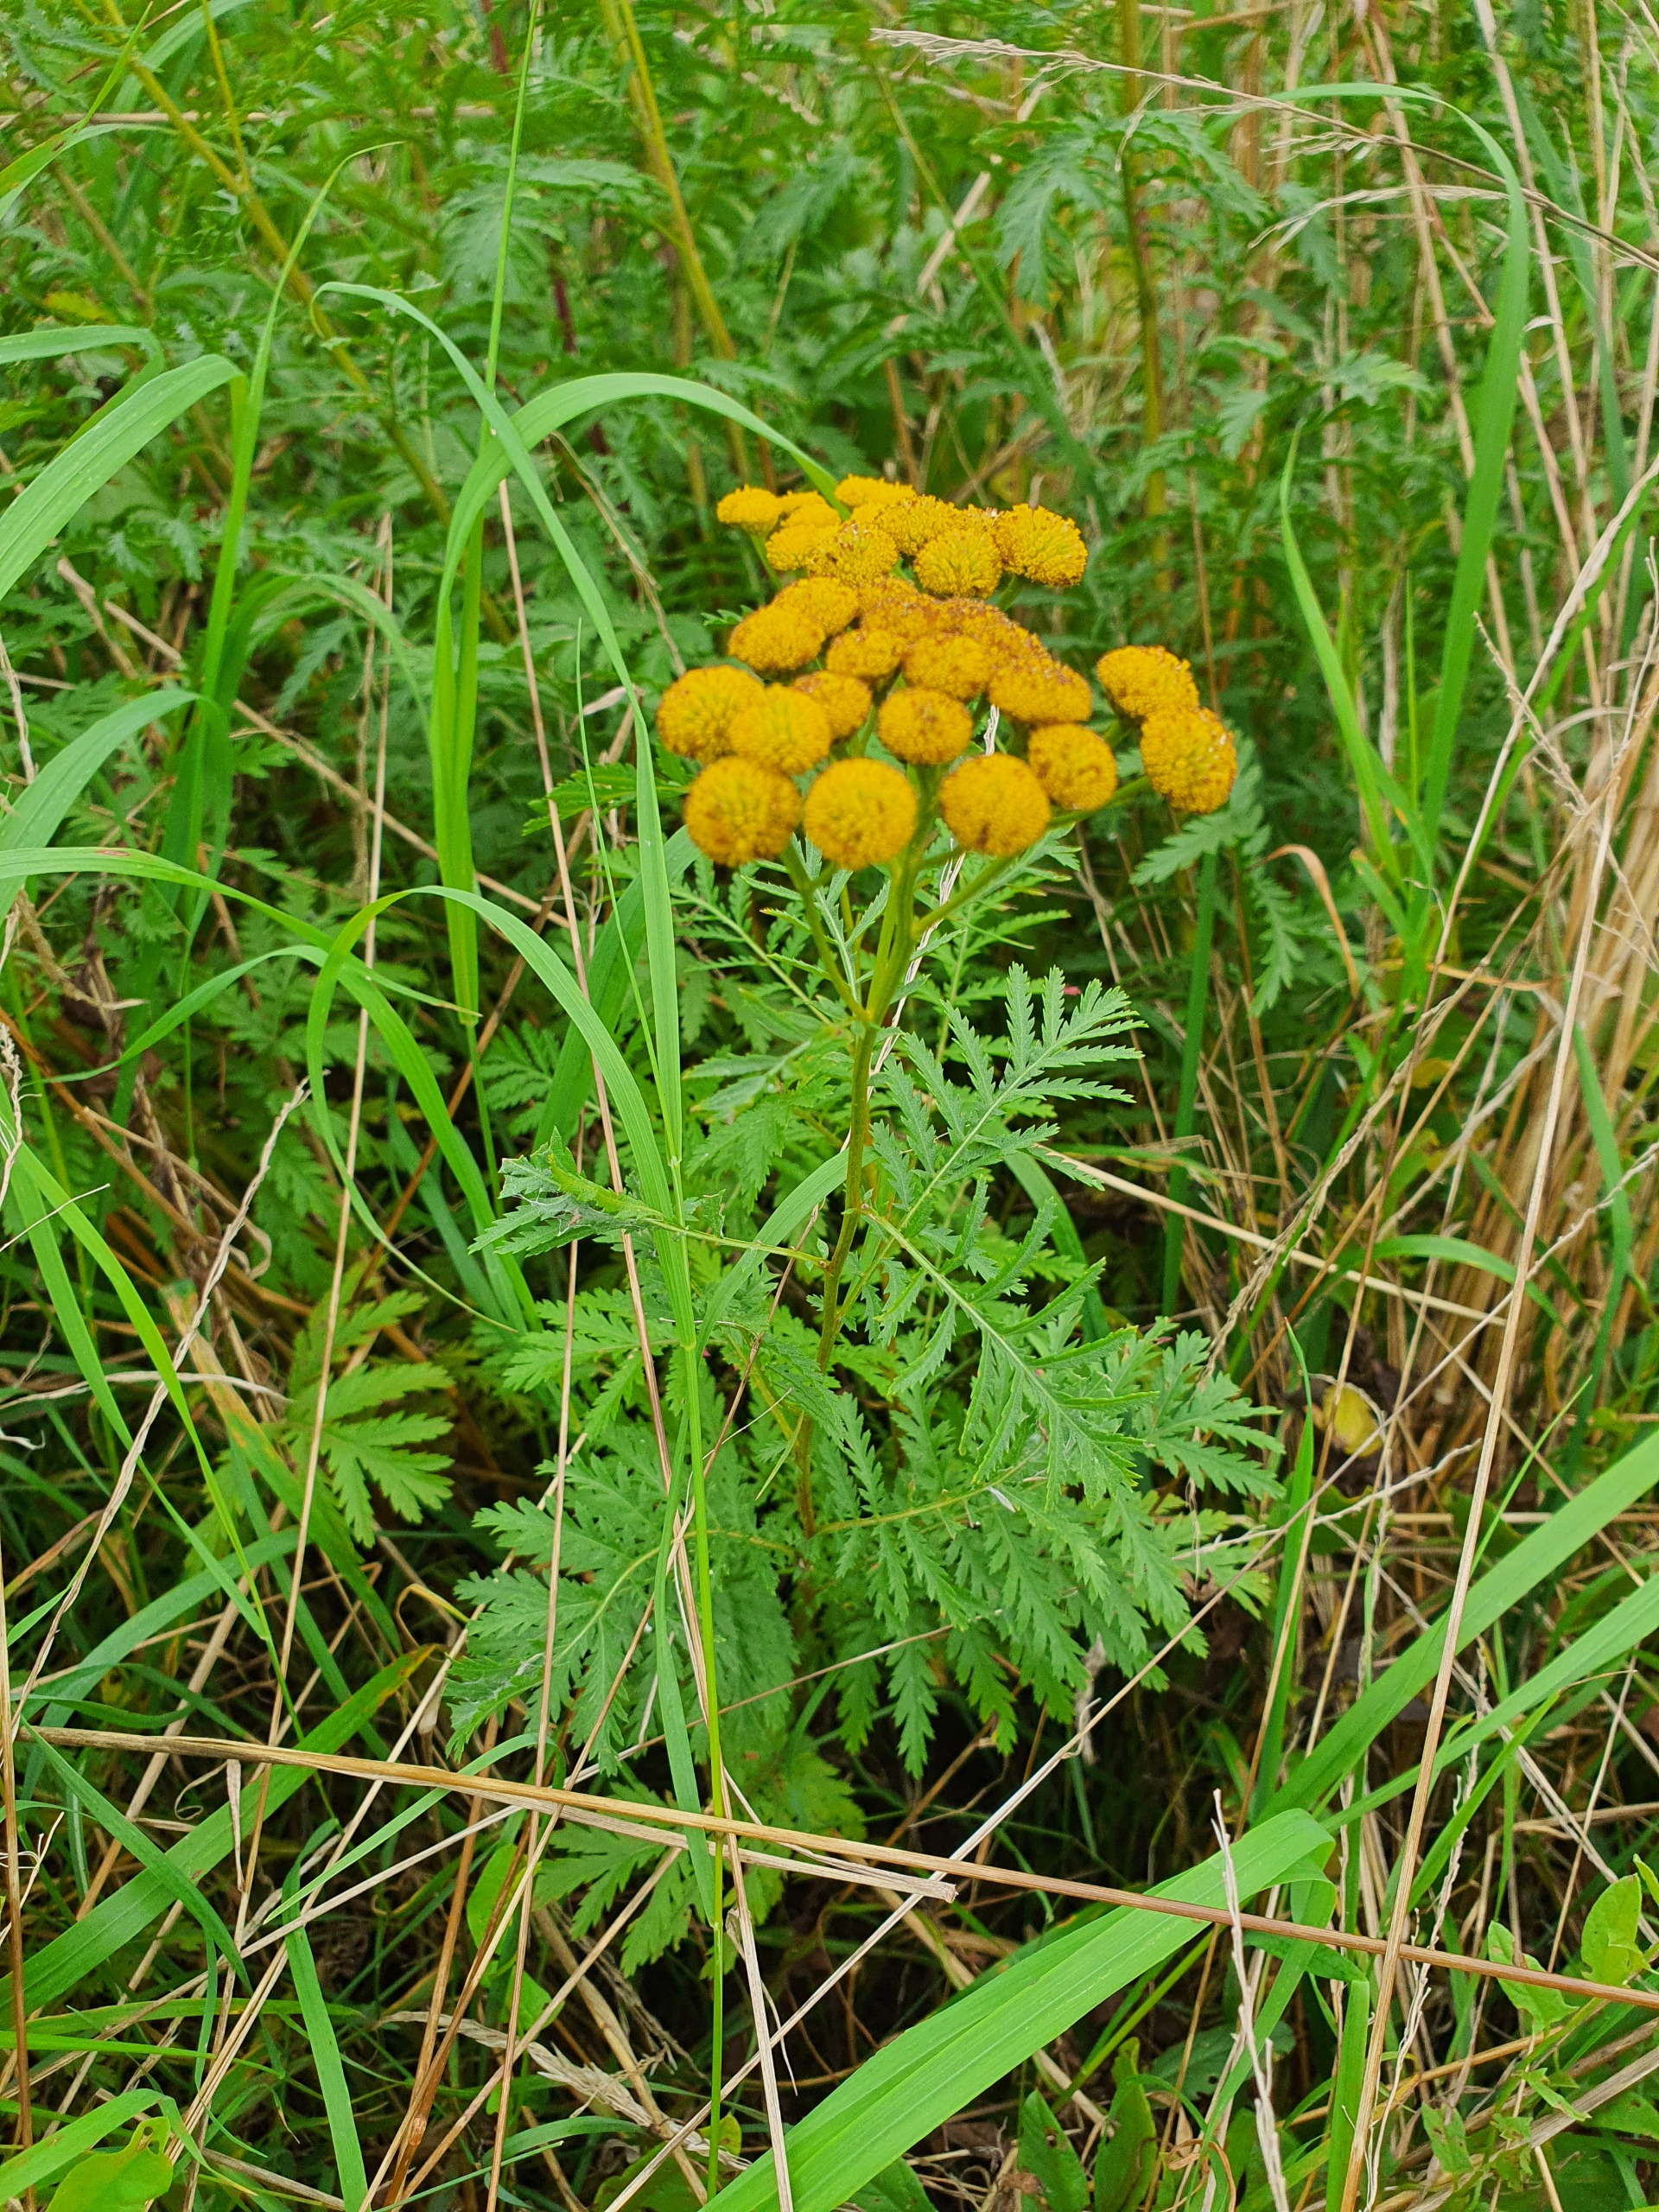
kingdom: Plantae
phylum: Tracheophyta
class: Magnoliopsida
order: Asterales
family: Asteraceae
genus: Tanacetum
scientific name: Tanacetum vulgare
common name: Rejnfan
